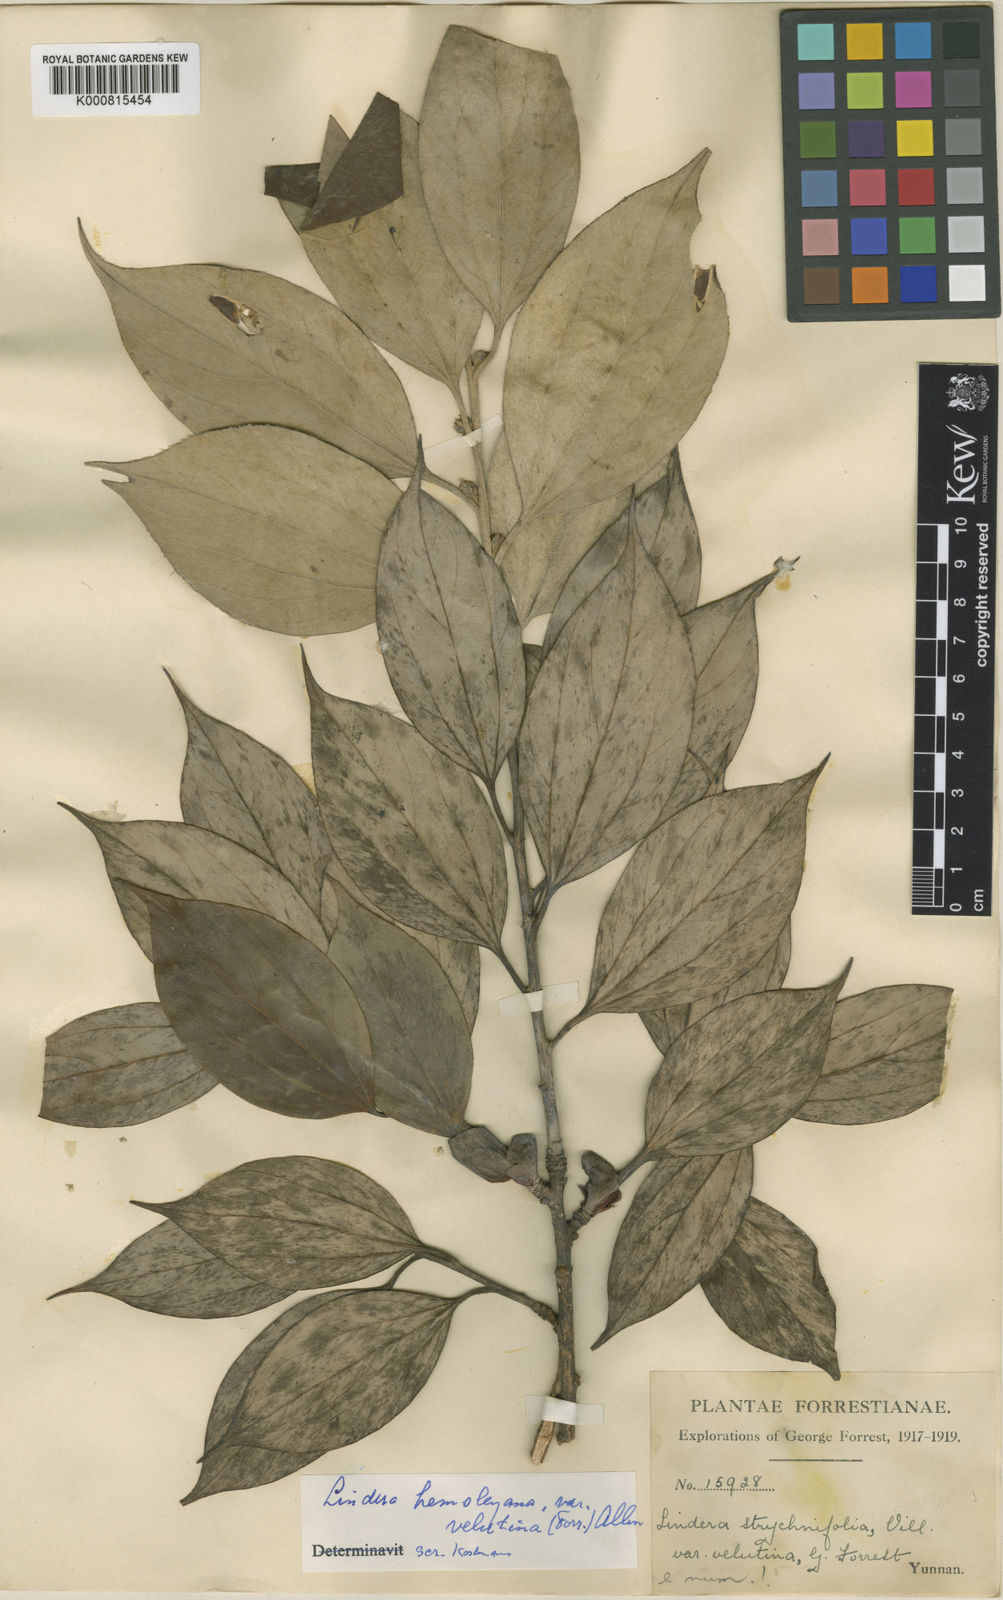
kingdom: Plantae
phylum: Tracheophyta
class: Magnoliopsida
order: Laurales
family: Lauraceae
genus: Lindera
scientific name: Lindera pulcherrima
